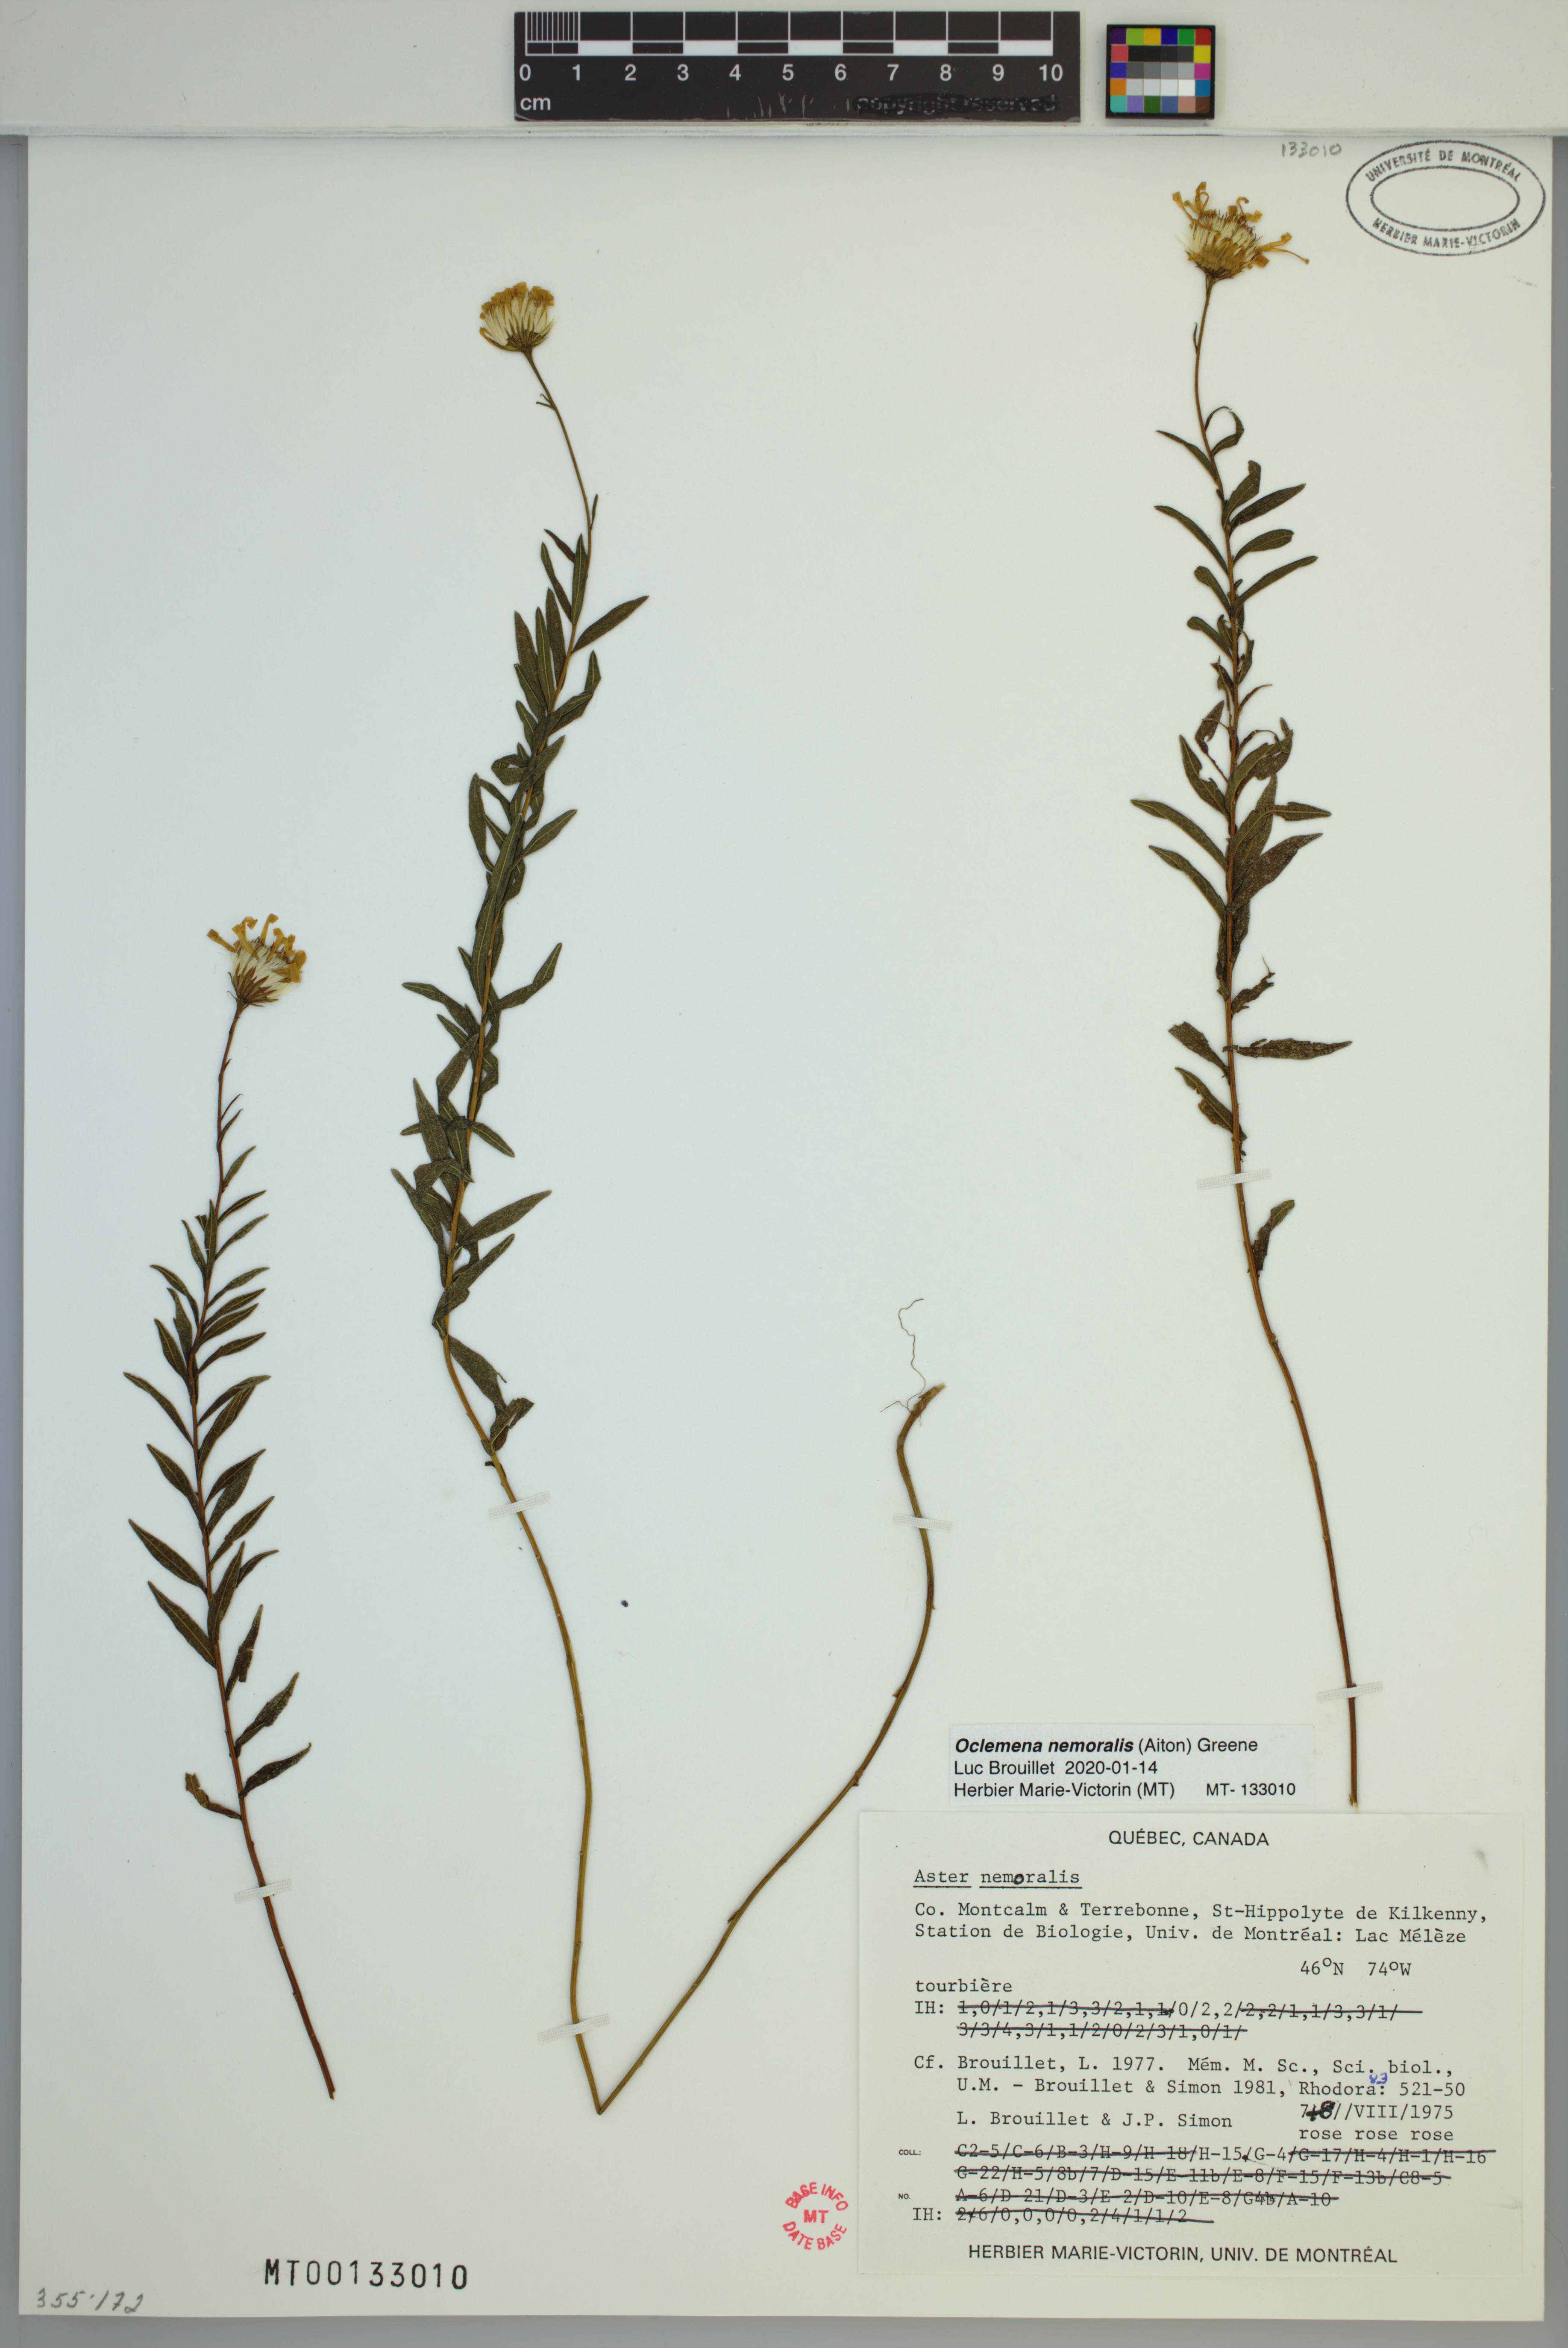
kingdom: Plantae
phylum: Tracheophyta
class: Magnoliopsida
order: Asterales
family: Asteraceae
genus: Oclemena
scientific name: Oclemena nemoralis
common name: Bog aster
